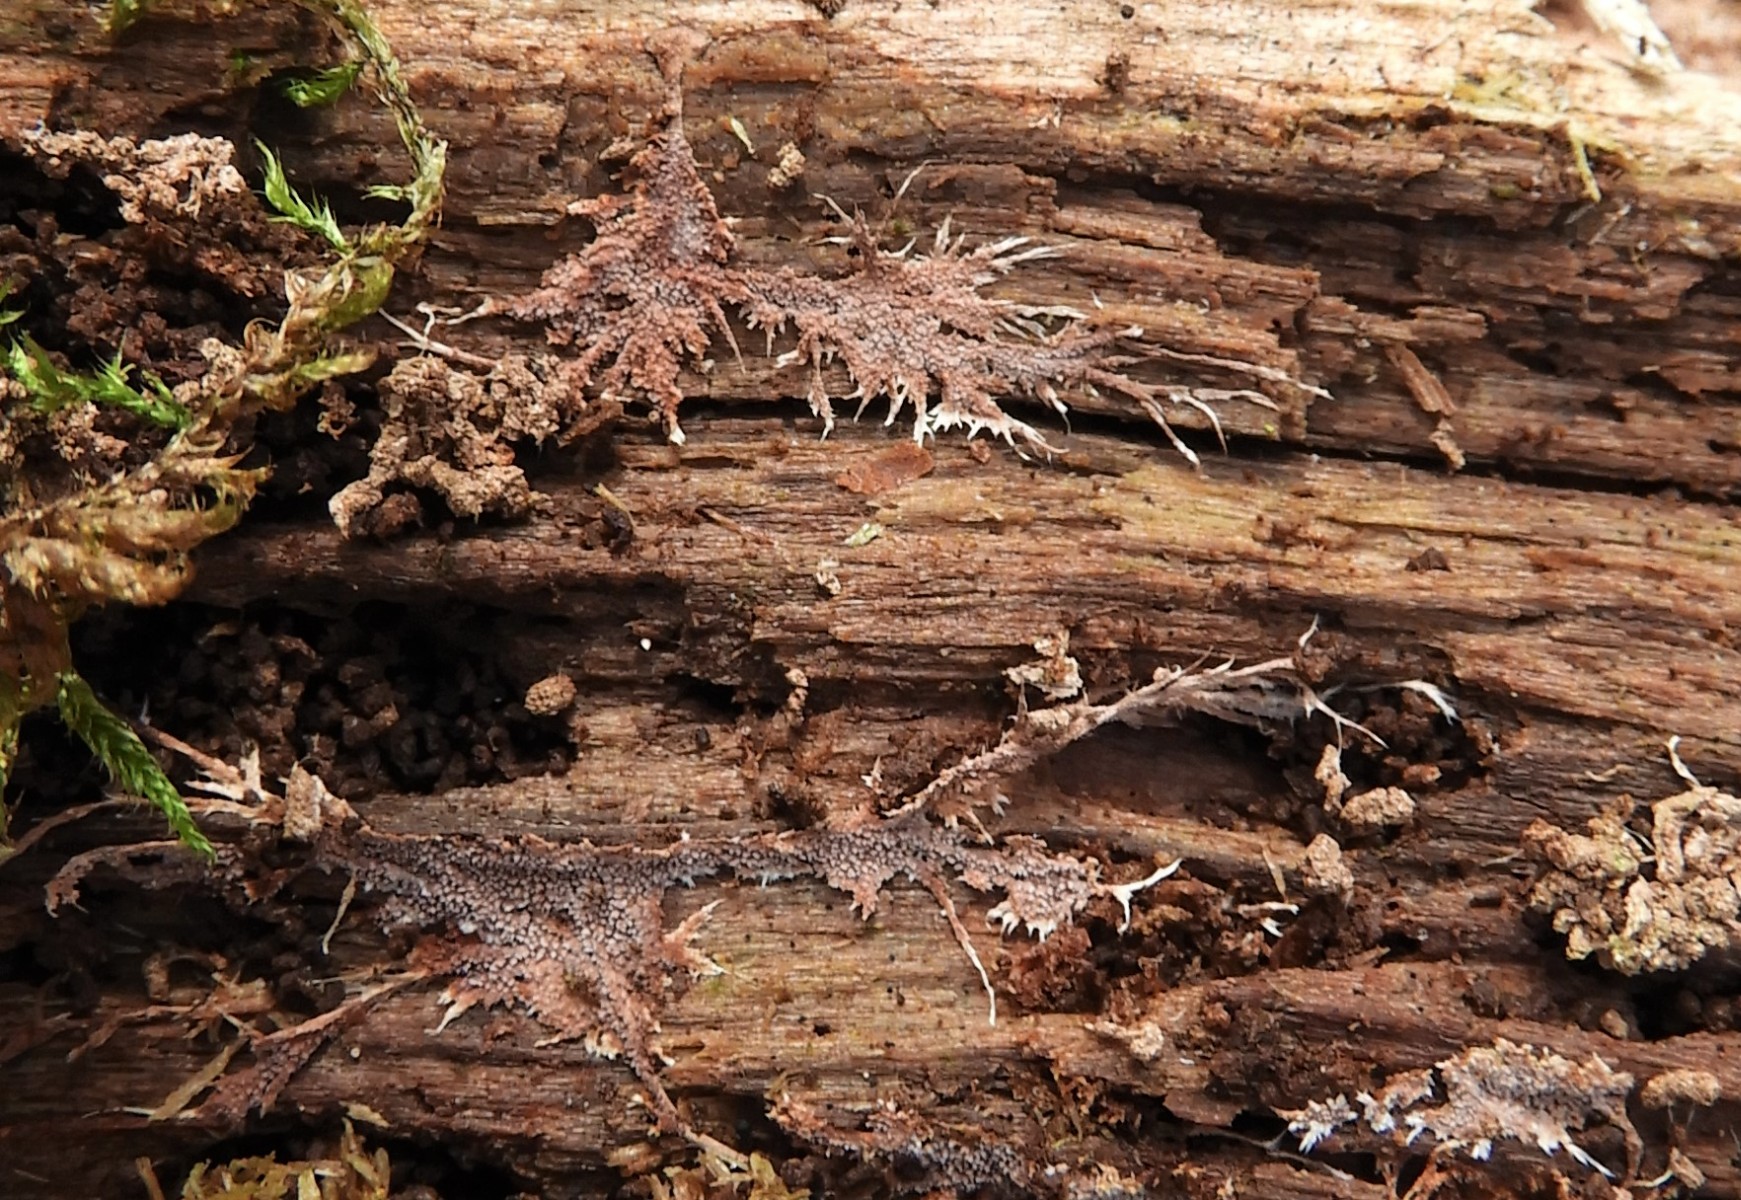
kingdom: Fungi
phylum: Basidiomycota
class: Agaricomycetes
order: Polyporales
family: Steccherinaceae
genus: Steccherinum
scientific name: Steccherinum fimbriatum
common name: trådet skønpig
